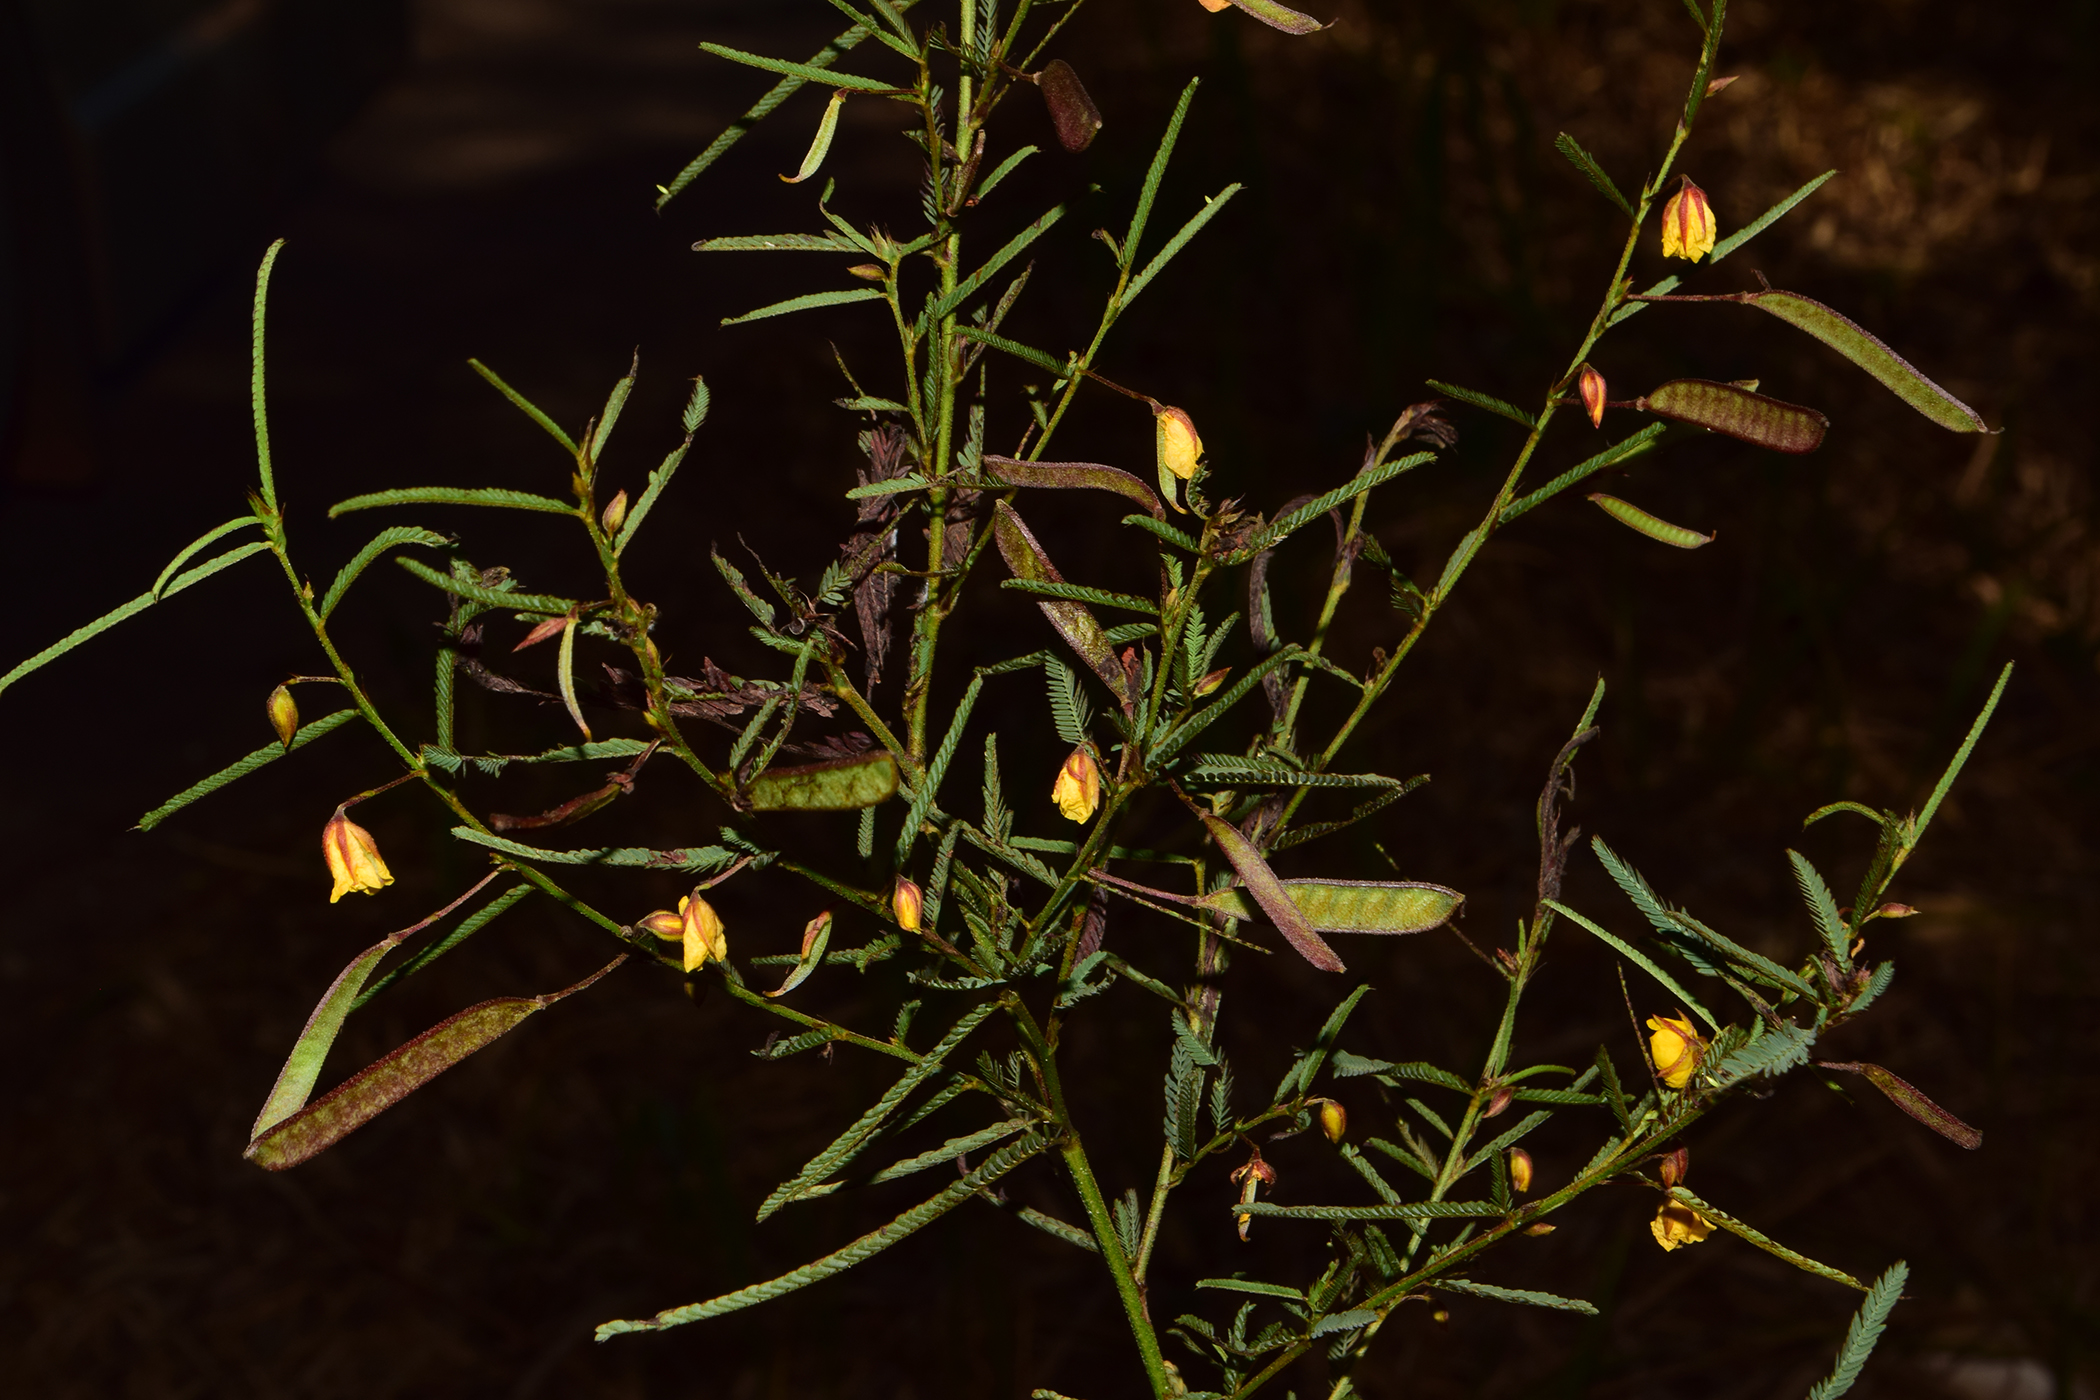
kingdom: Plantae
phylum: Tracheophyta
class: Magnoliopsida
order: Fabales
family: Fabaceae
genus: Chamaecrista
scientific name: Chamaecrista mimosoides
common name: Fish-bone cassia
